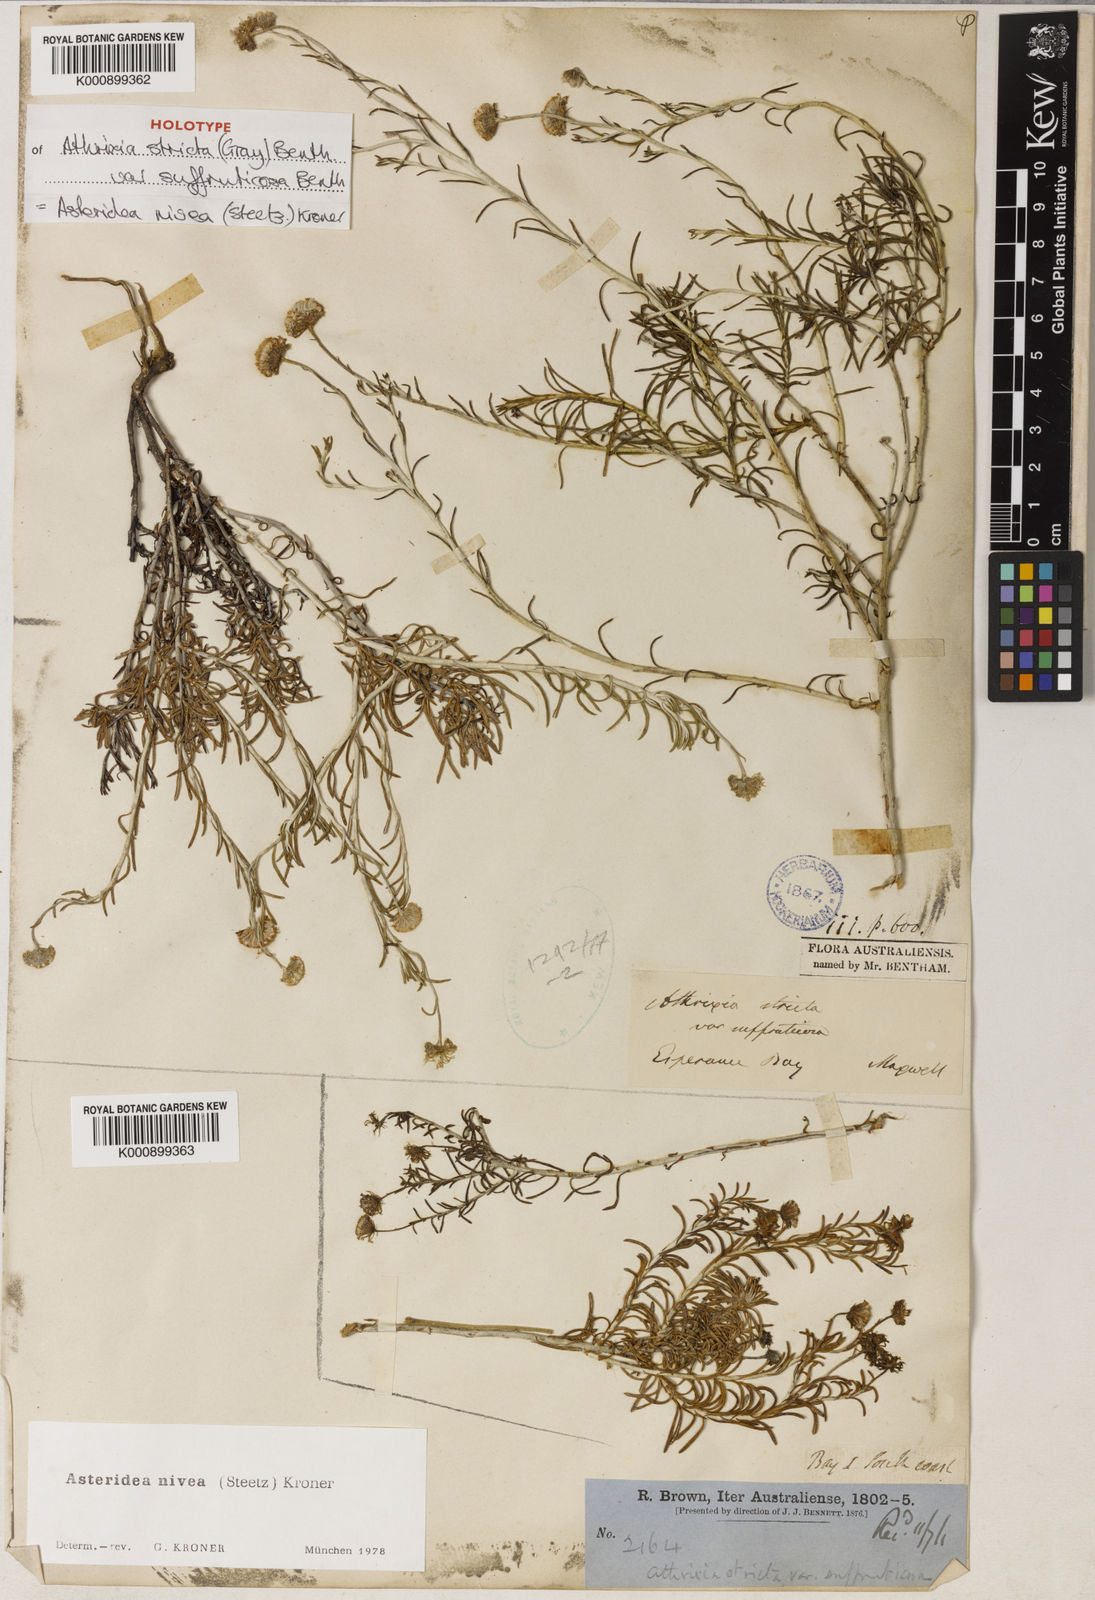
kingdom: Plantae
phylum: Tracheophyta
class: Magnoliopsida
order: Asterales
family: Asteraceae
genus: Asteridea
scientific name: Asteridea nivea
